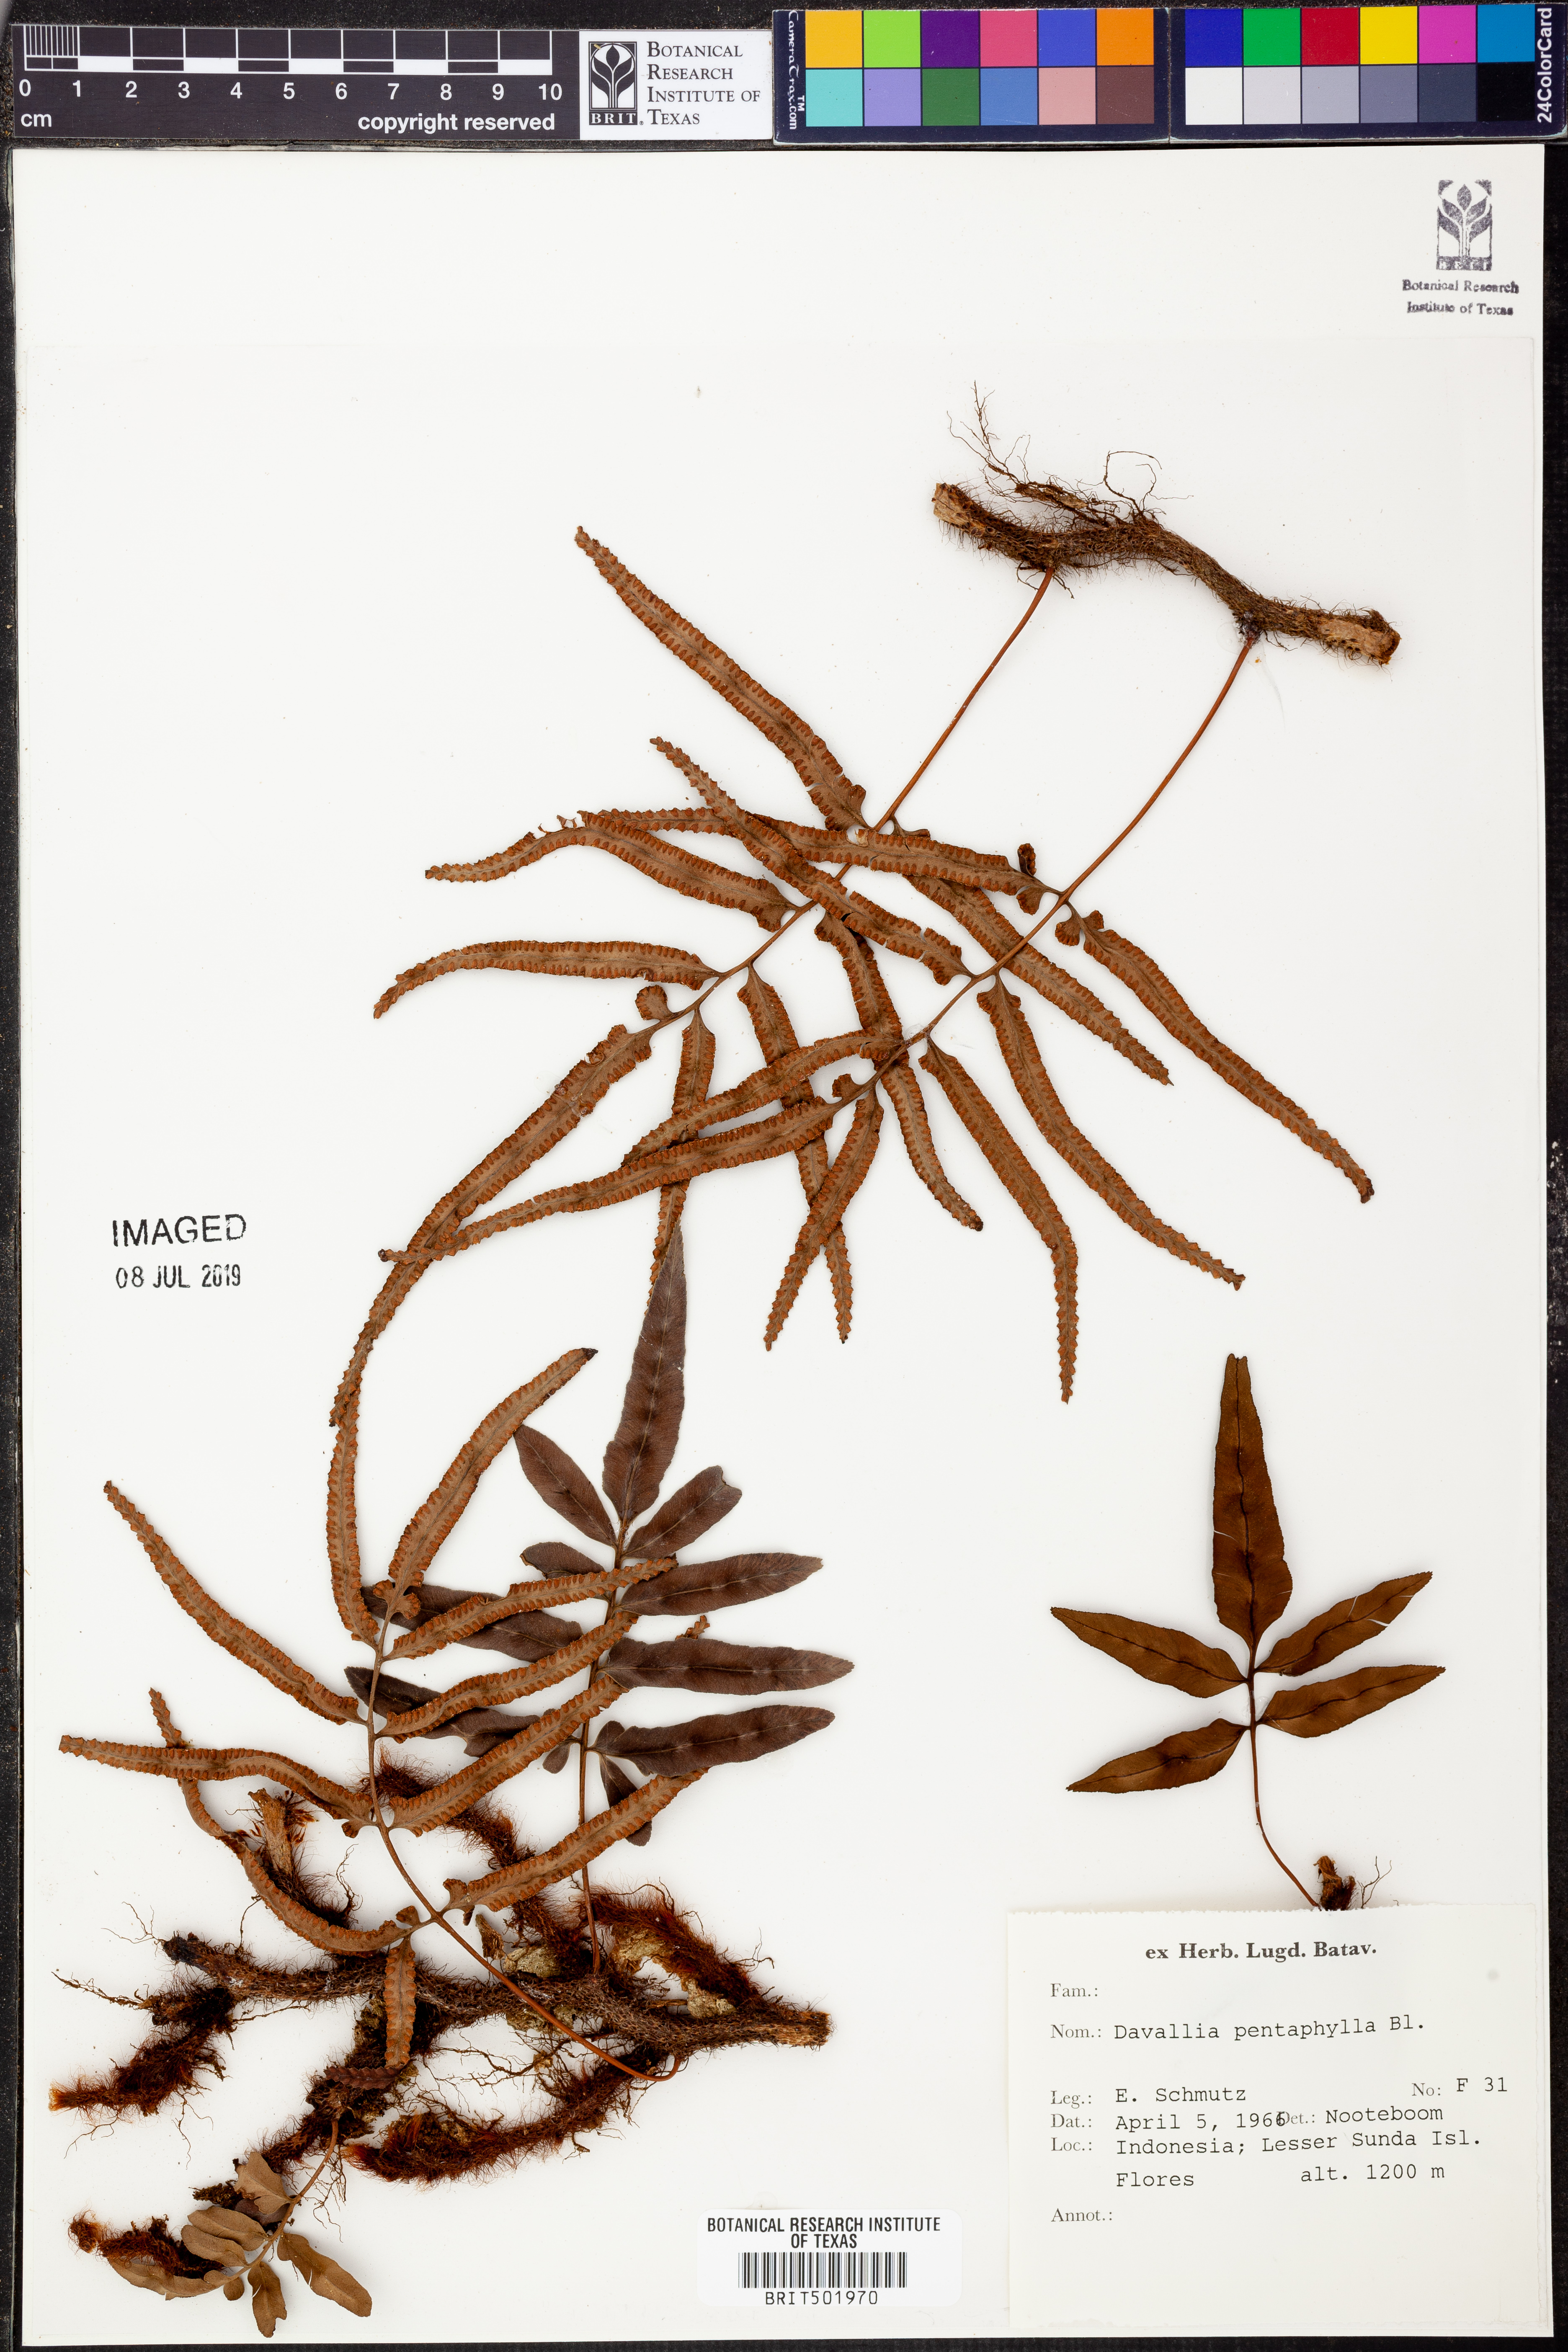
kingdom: Plantae
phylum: Tracheophyta
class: Polypodiopsida
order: Polypodiales
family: Davalliaceae
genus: Davallia
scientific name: Davallia pentaphylla
